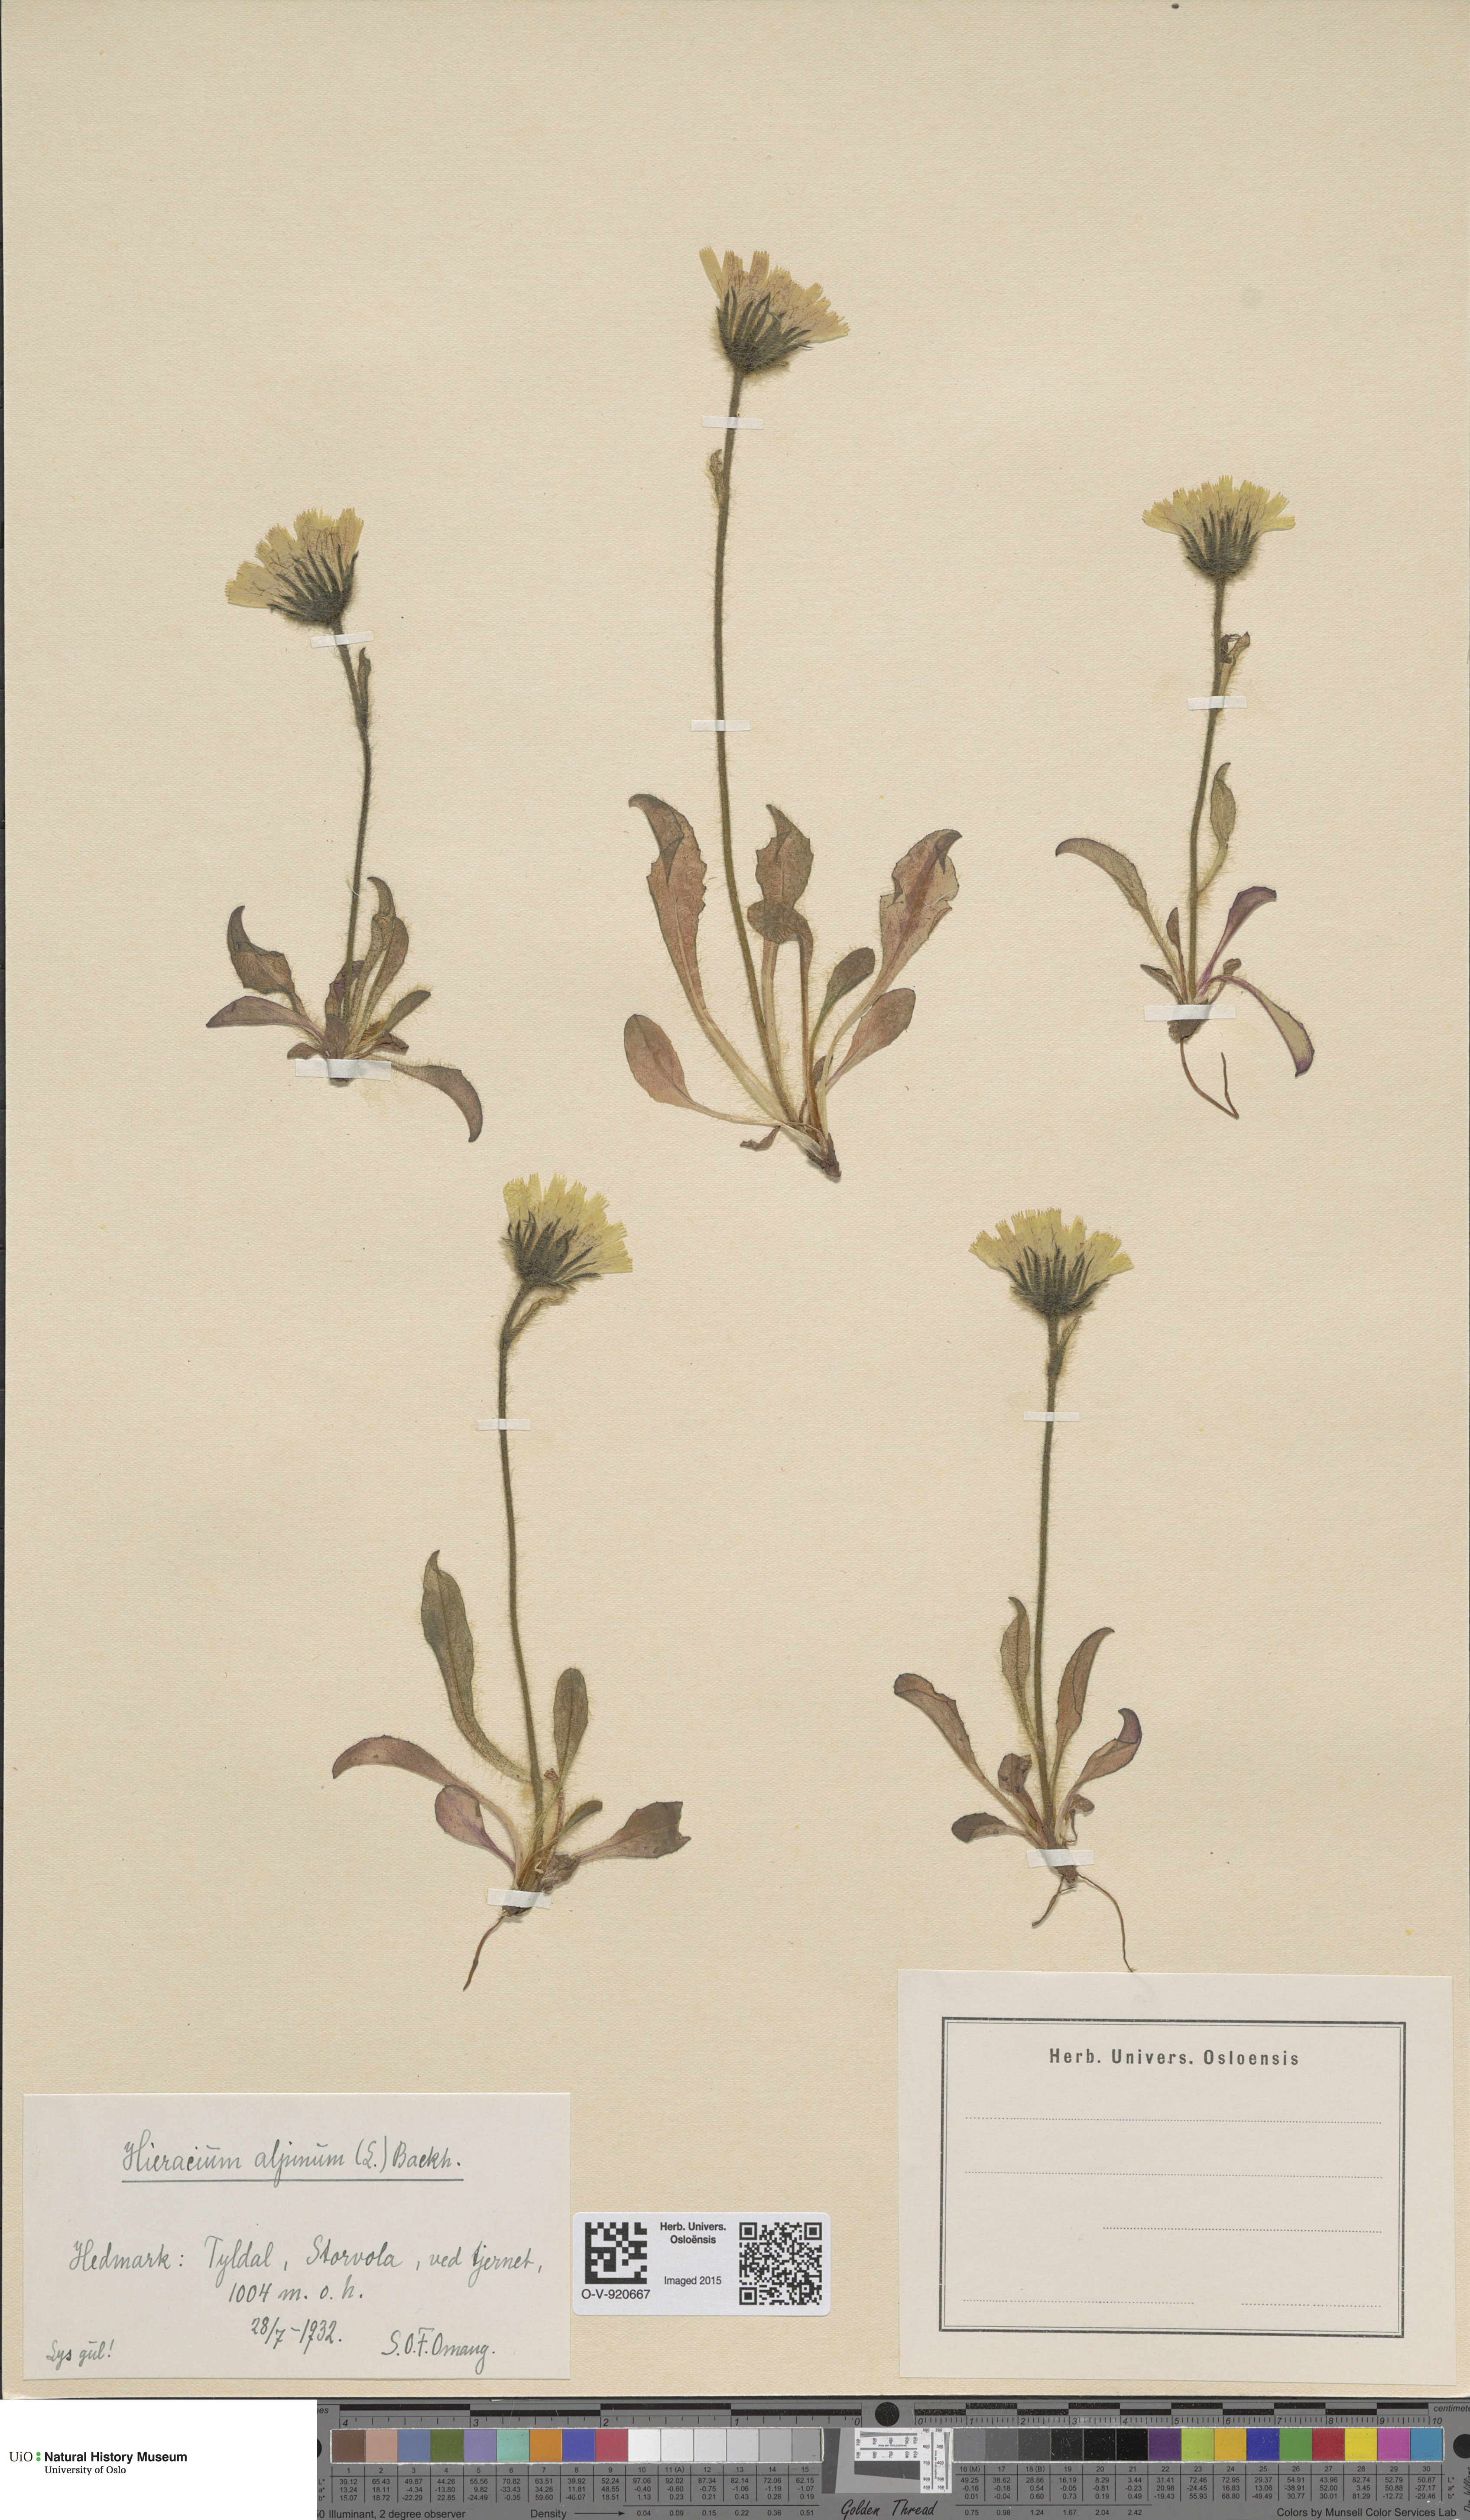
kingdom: Plantae
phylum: Tracheophyta
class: Magnoliopsida
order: Asterales
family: Asteraceae
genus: Hieracium
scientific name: Hieracium alpinum
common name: Alpine hawkweed
